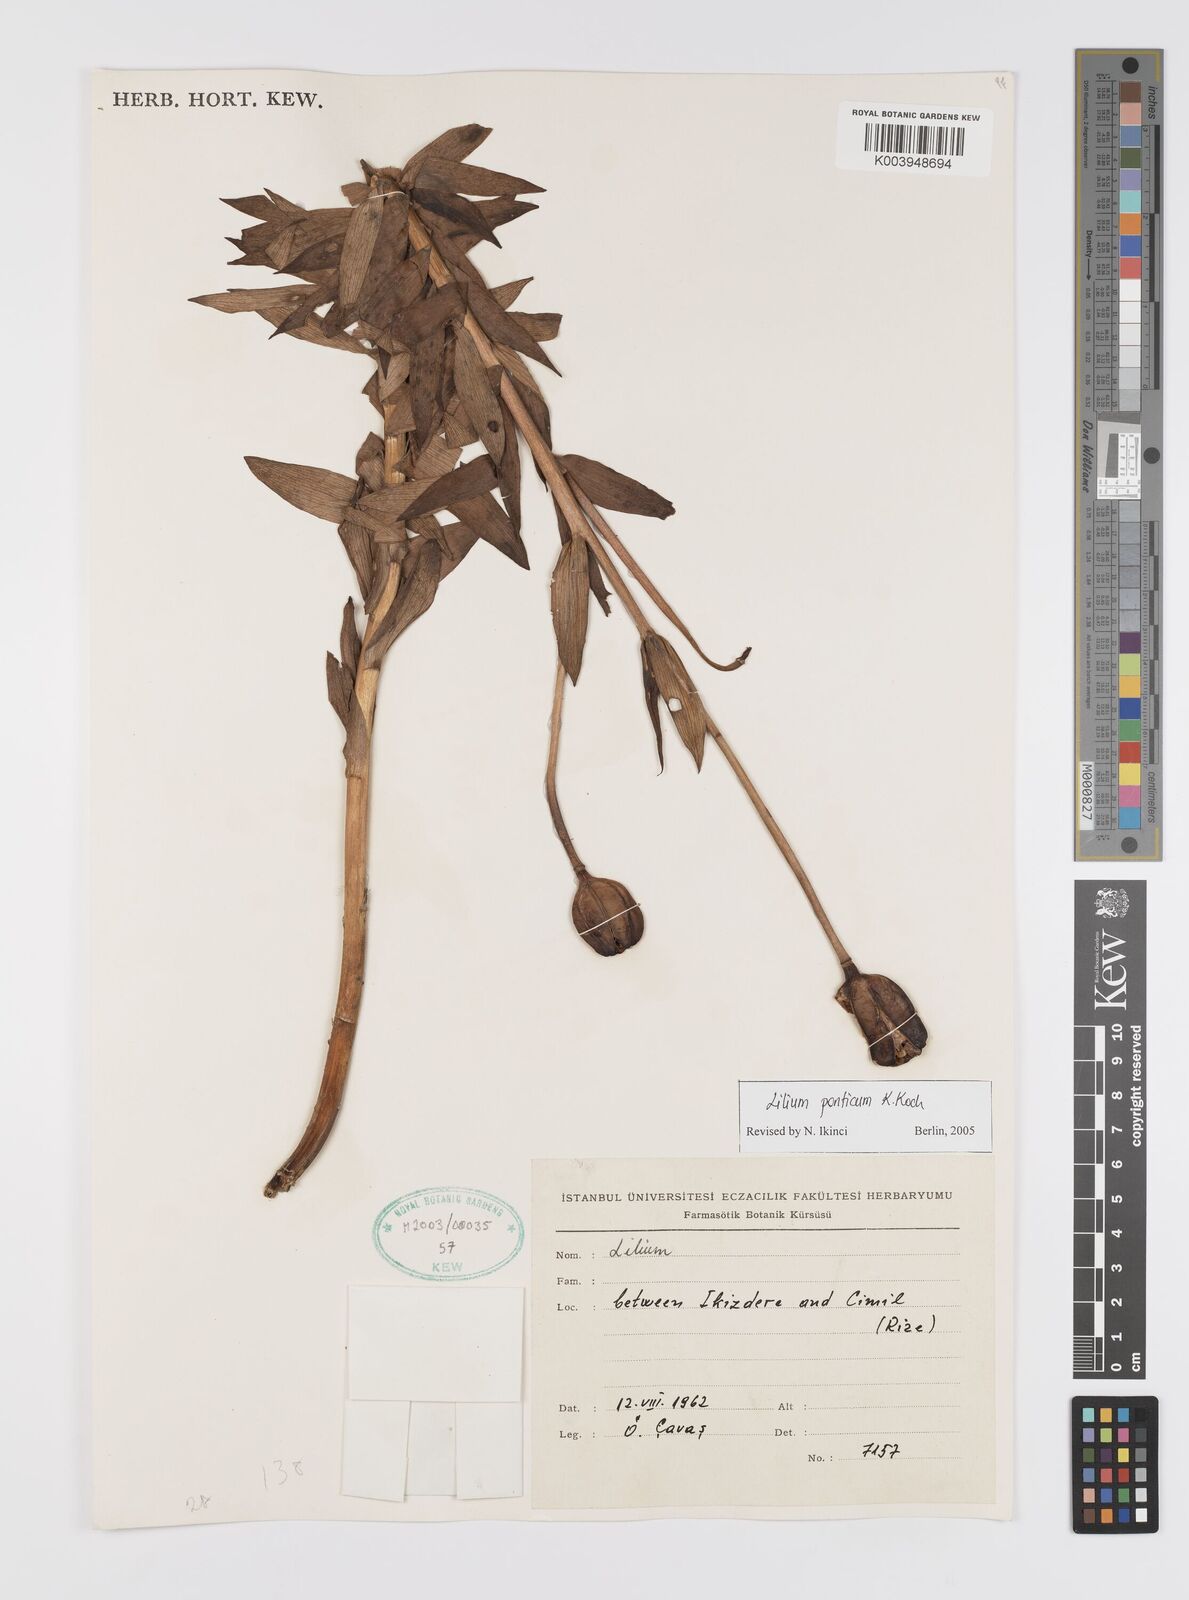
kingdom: Plantae
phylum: Tracheophyta
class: Liliopsida
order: Liliales
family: Liliaceae
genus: Lilium
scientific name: Lilium ponticum
